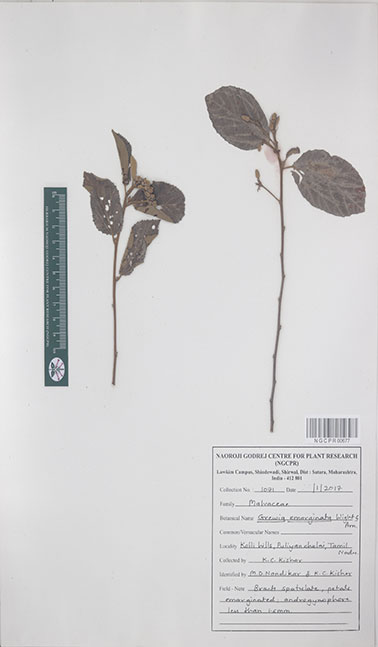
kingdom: Plantae
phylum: Tracheophyta
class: Magnoliopsida
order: Malvales
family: Malvaceae
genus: Grewia
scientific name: Grewia oppositifolia
